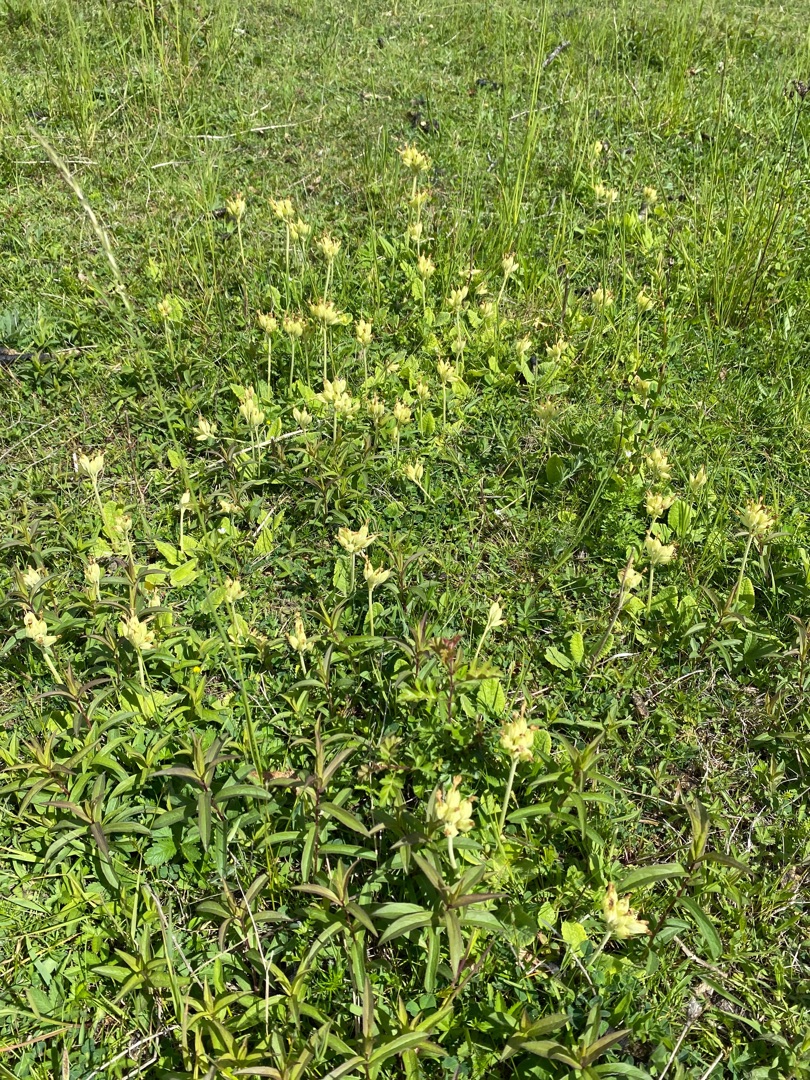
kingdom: Plantae
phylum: Tracheophyta
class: Magnoliopsida
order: Ericales
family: Primulaceae
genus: Primula
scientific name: Primula veris
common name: Hulkravet kodriver
